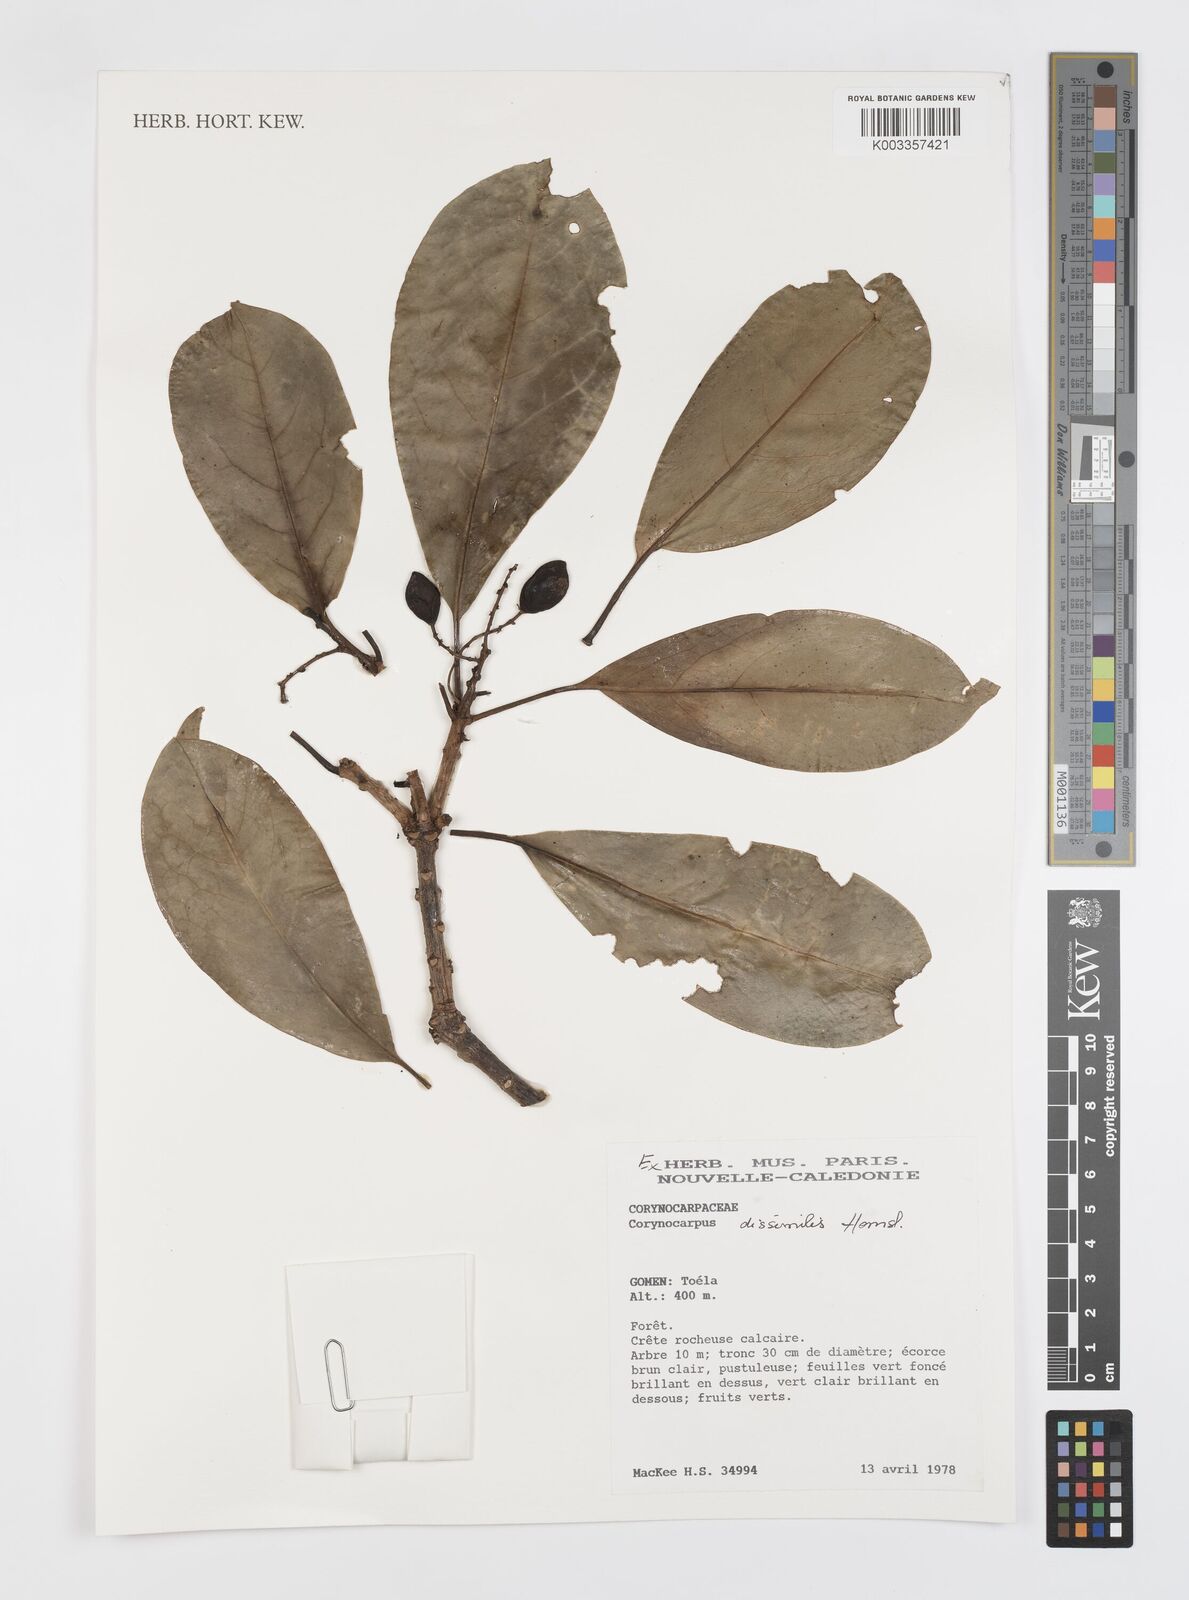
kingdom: Plantae
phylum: Tracheophyta
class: Magnoliopsida
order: Cucurbitales
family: Corynocarpaceae
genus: Corynocarpus
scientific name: Corynocarpus dissimilis
